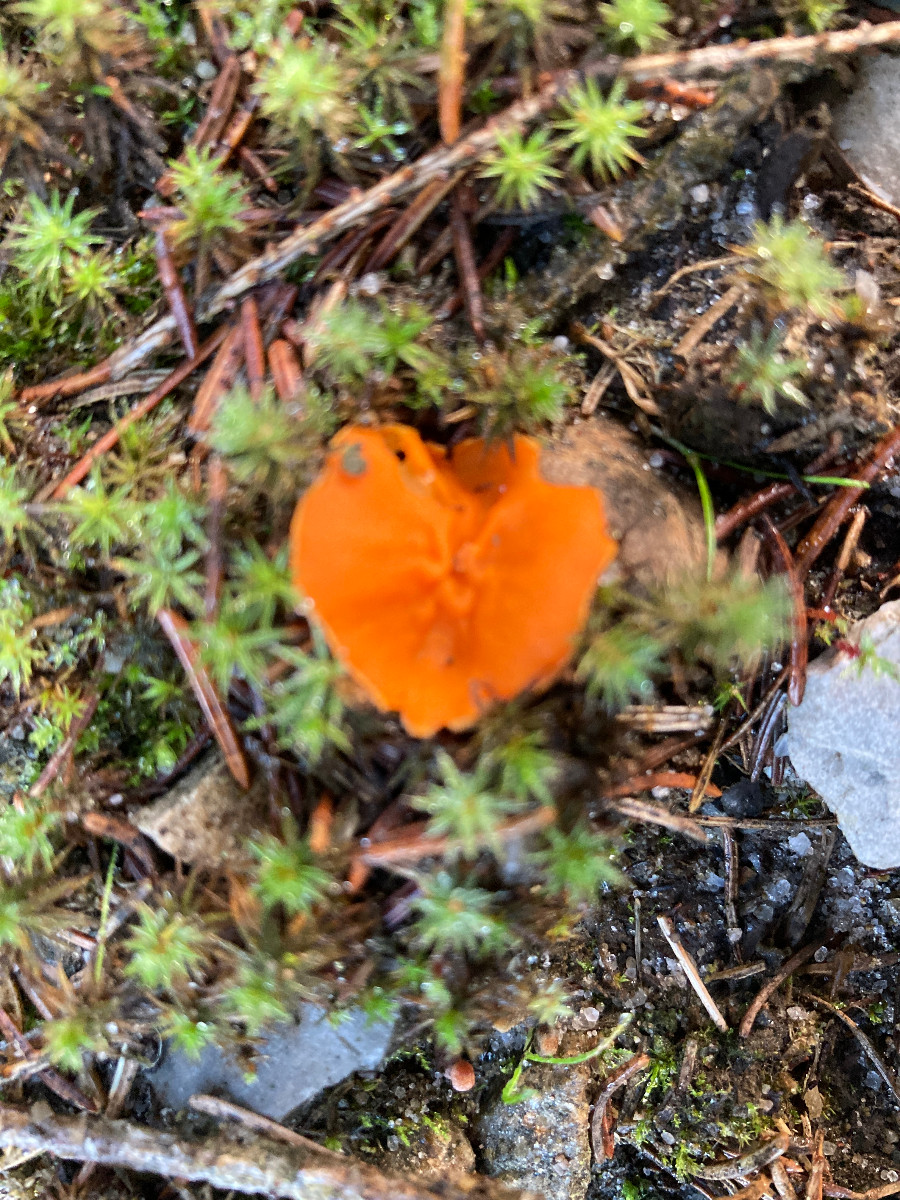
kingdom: Fungi
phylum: Ascomycota
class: Pezizomycetes
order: Pezizales
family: Pyronemataceae
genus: Neottiella
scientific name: Neottiella
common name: mosbæger
